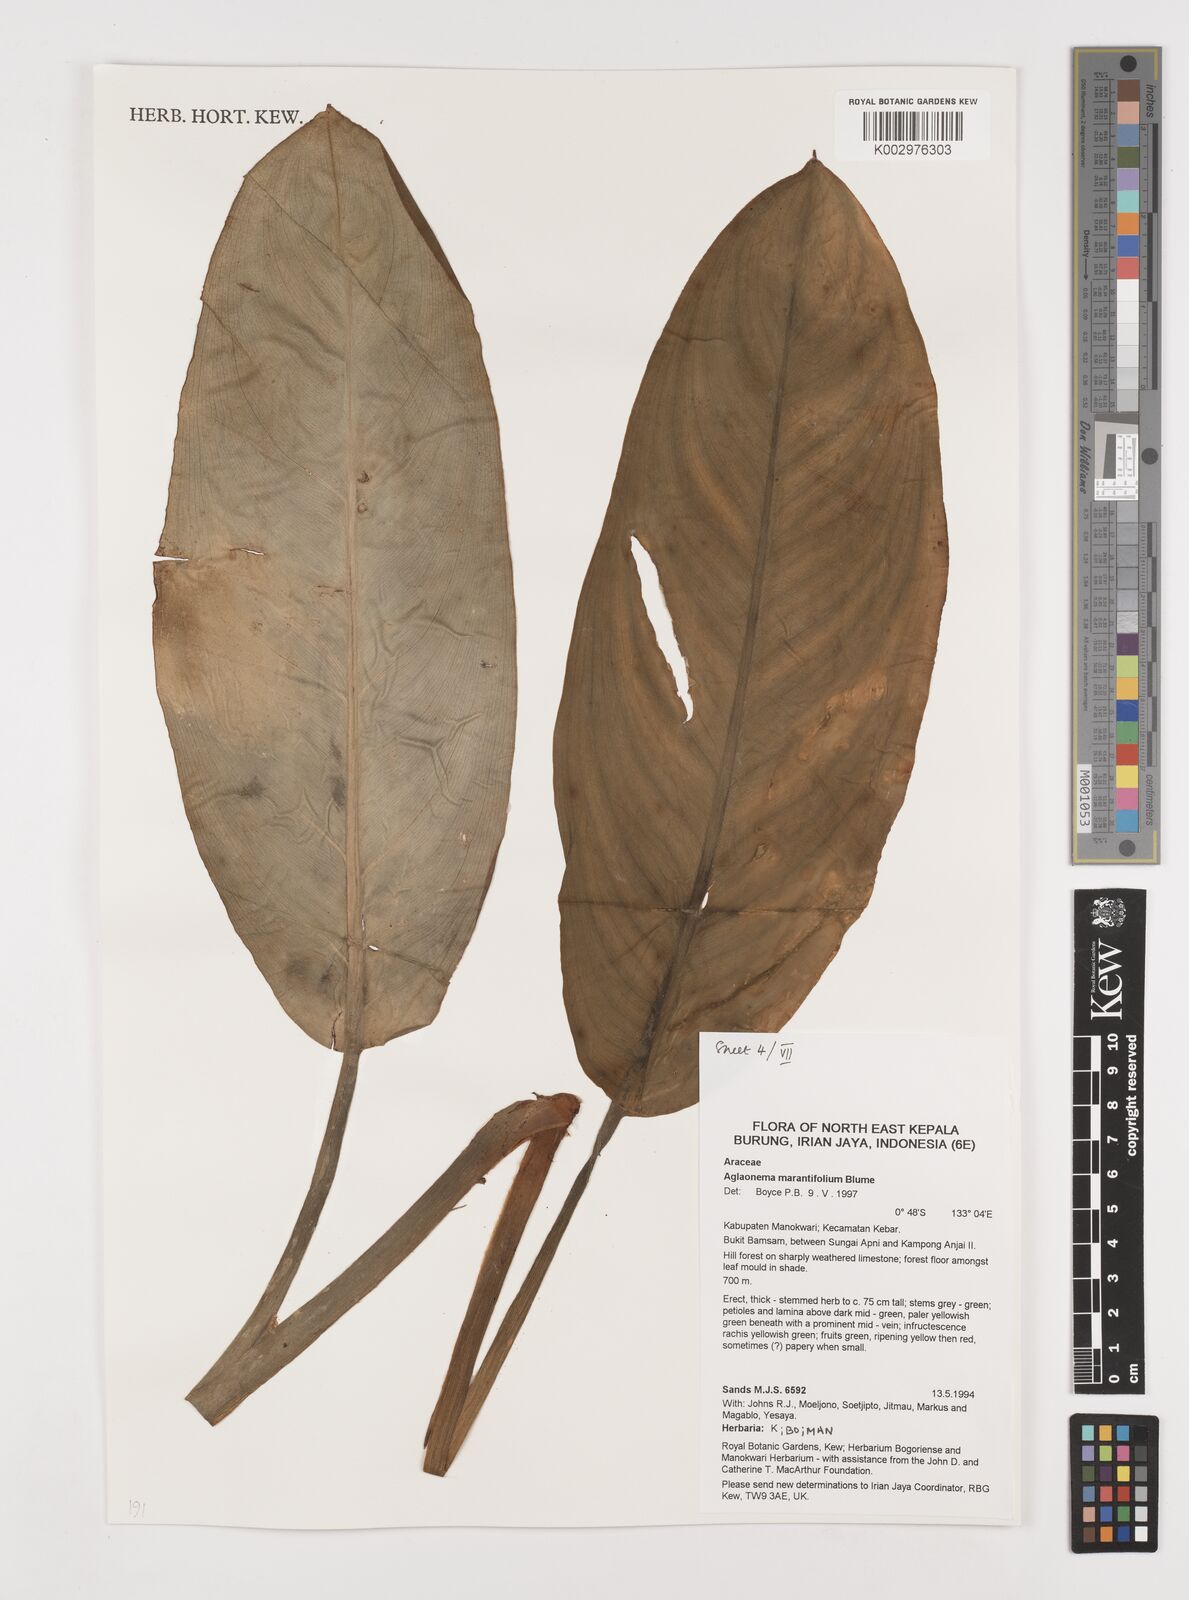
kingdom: Plantae
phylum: Tracheophyta
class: Liliopsida
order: Alismatales
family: Araceae
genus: Aglaonema
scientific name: Aglaonema marantifolium
